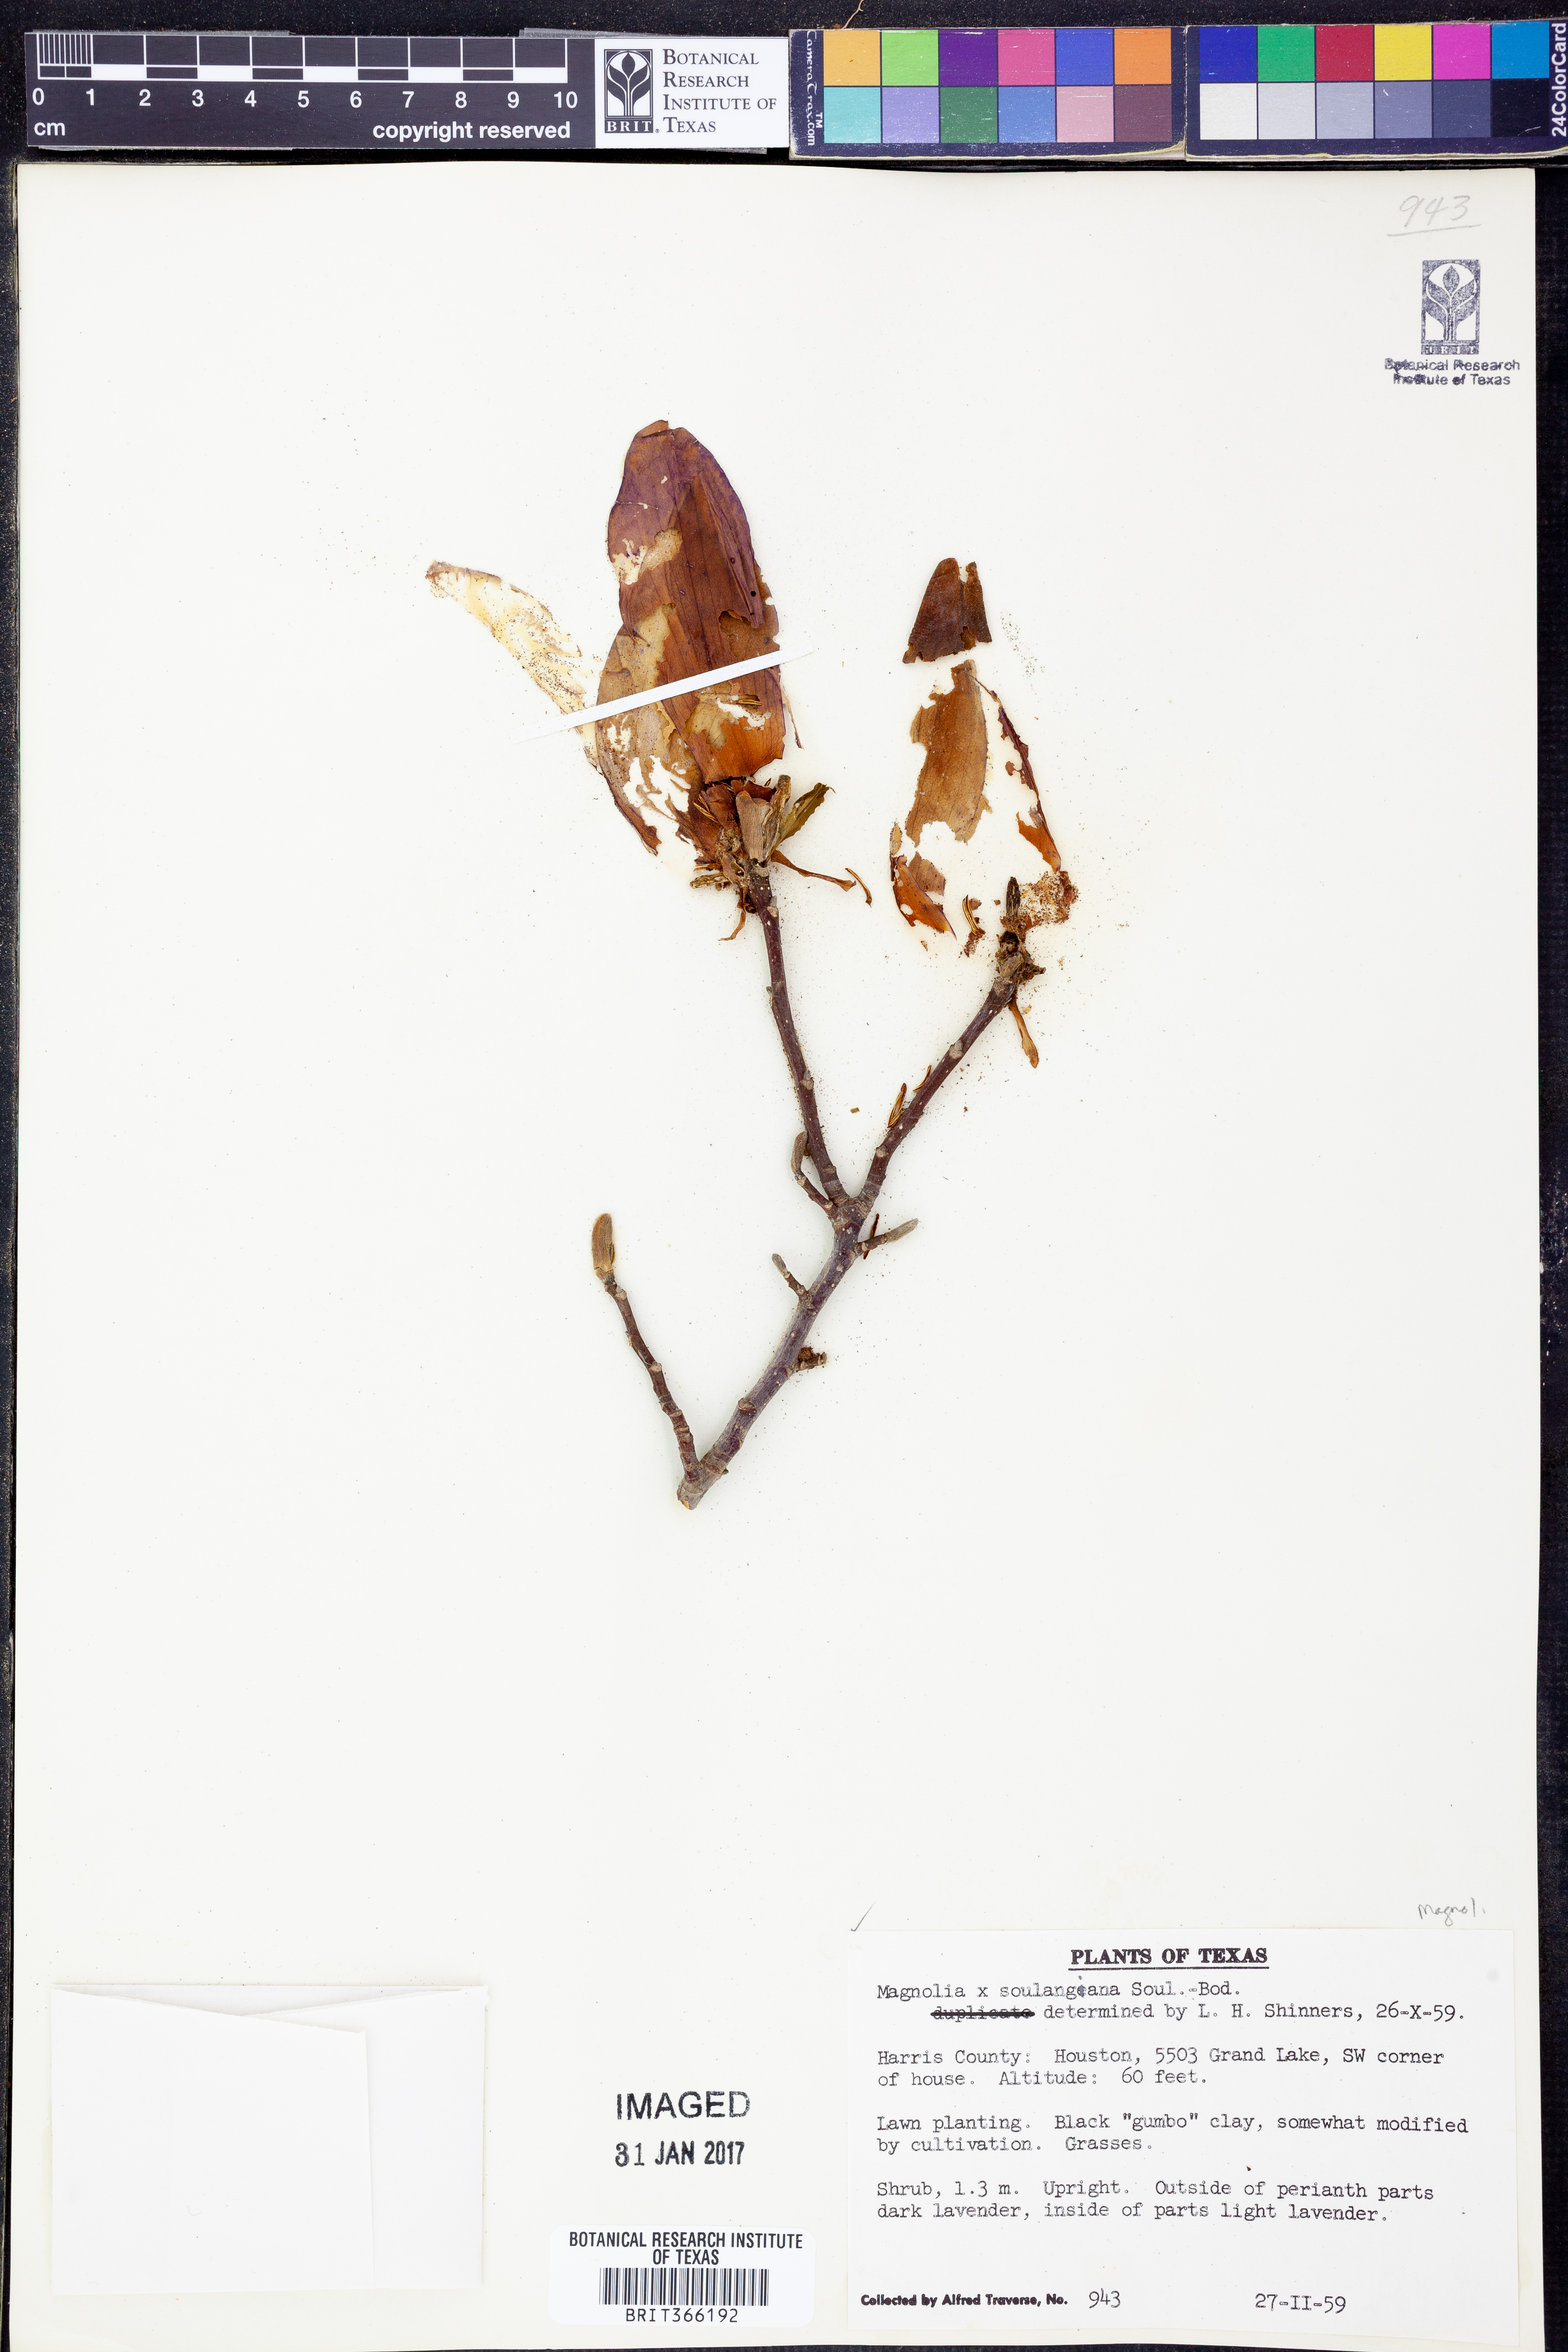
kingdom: Plantae
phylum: Tracheophyta
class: Magnoliopsida
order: Magnoliales
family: Magnoliaceae
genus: Magnolia
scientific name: Magnolia
